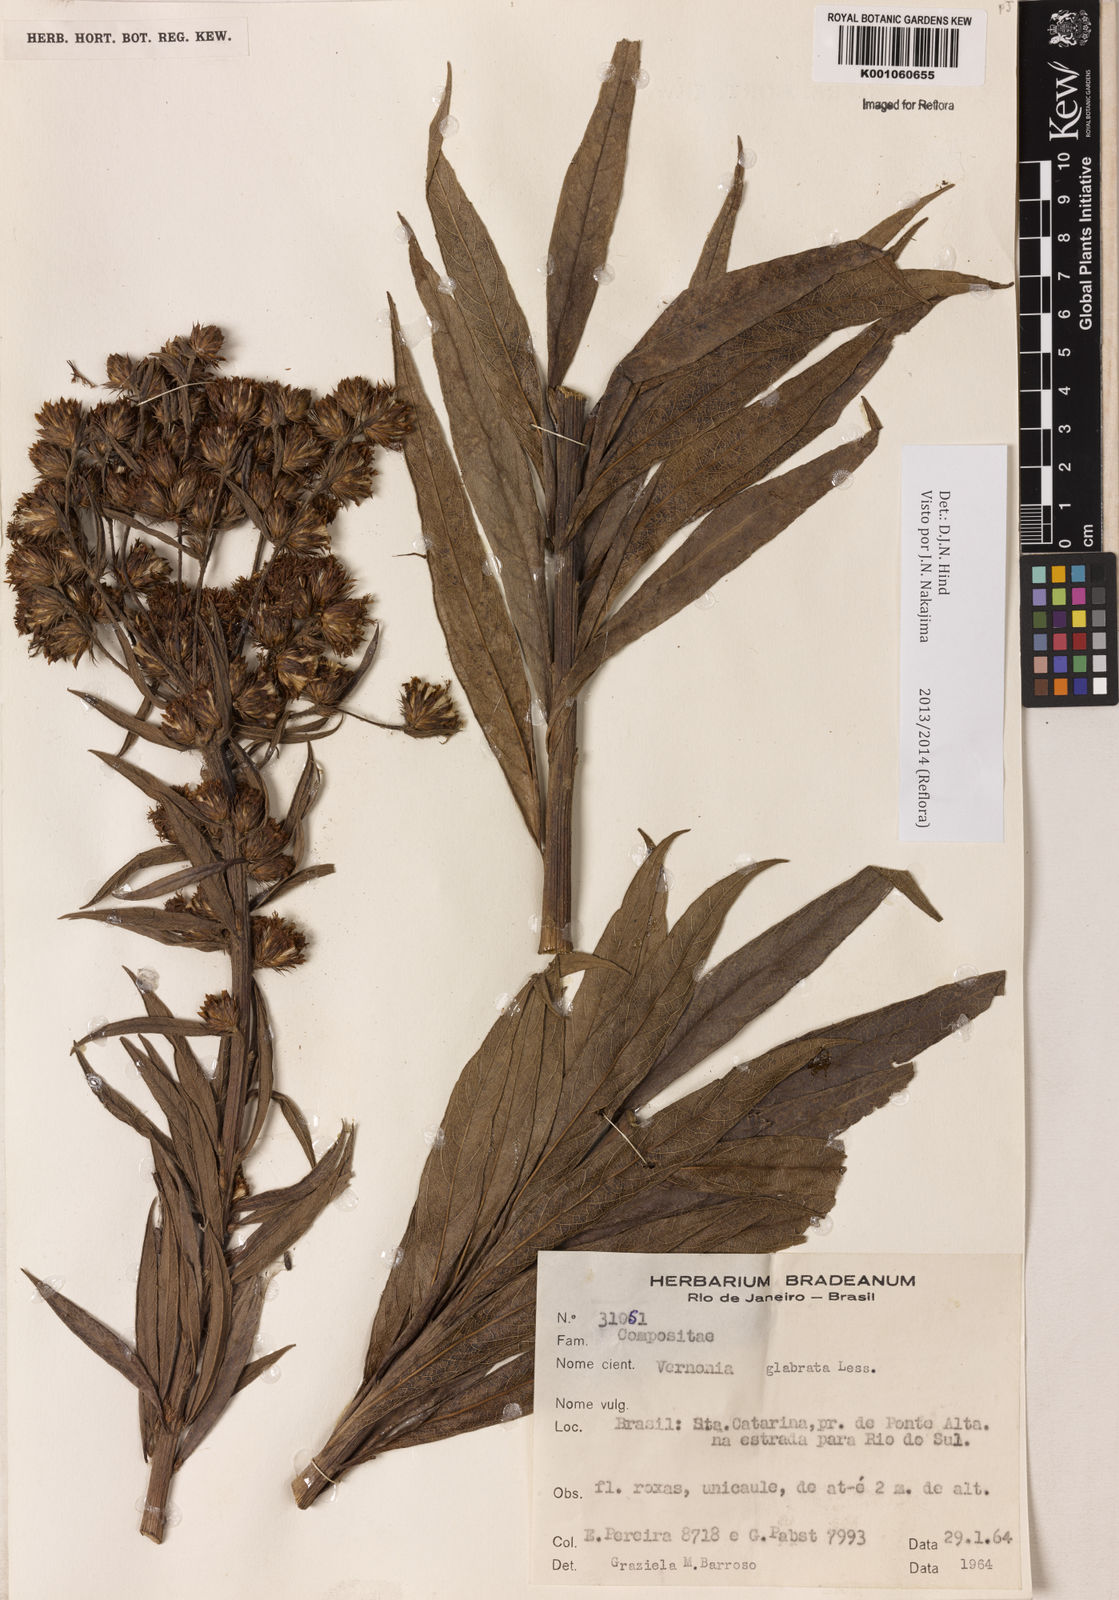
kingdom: Plantae
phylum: Tracheophyta
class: Magnoliopsida
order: Asterales
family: Asteraceae
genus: Lessingianthus
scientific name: Lessingianthus glabratus
